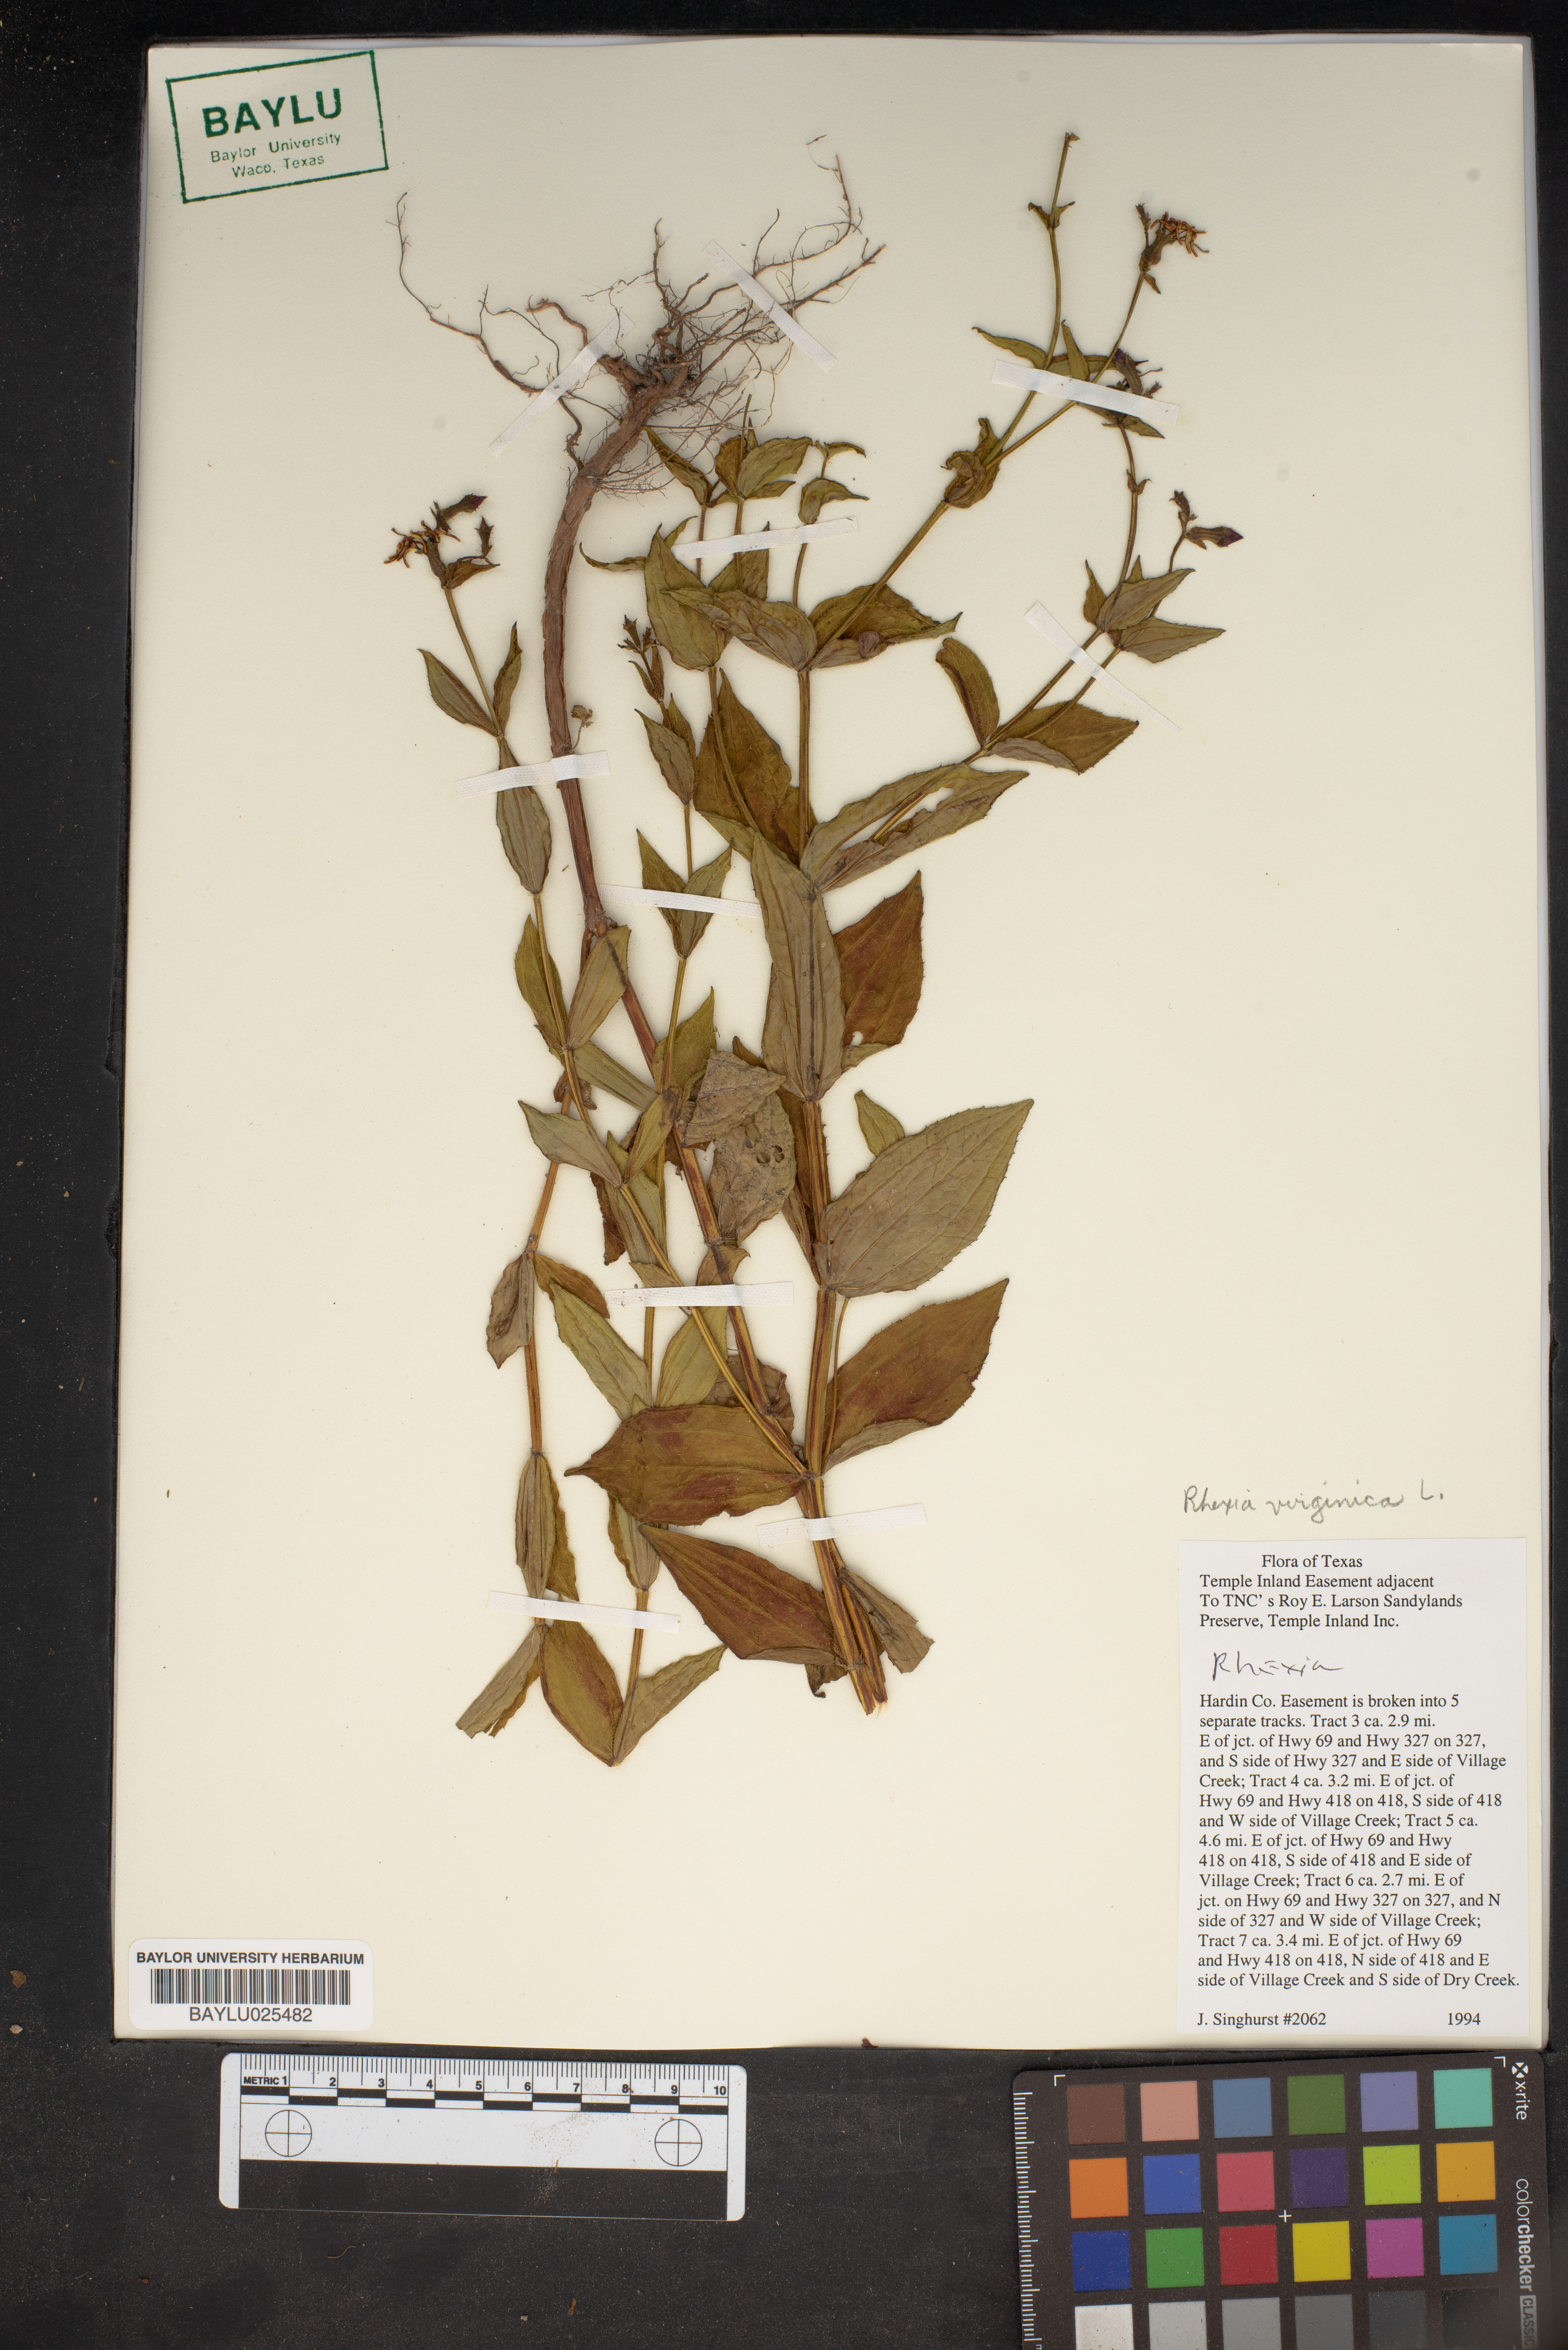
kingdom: Plantae
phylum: Tracheophyta
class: Magnoliopsida
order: Myrtales
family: Melastomataceae
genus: Rhexia
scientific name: Rhexia virginica
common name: Common meadow beauty
